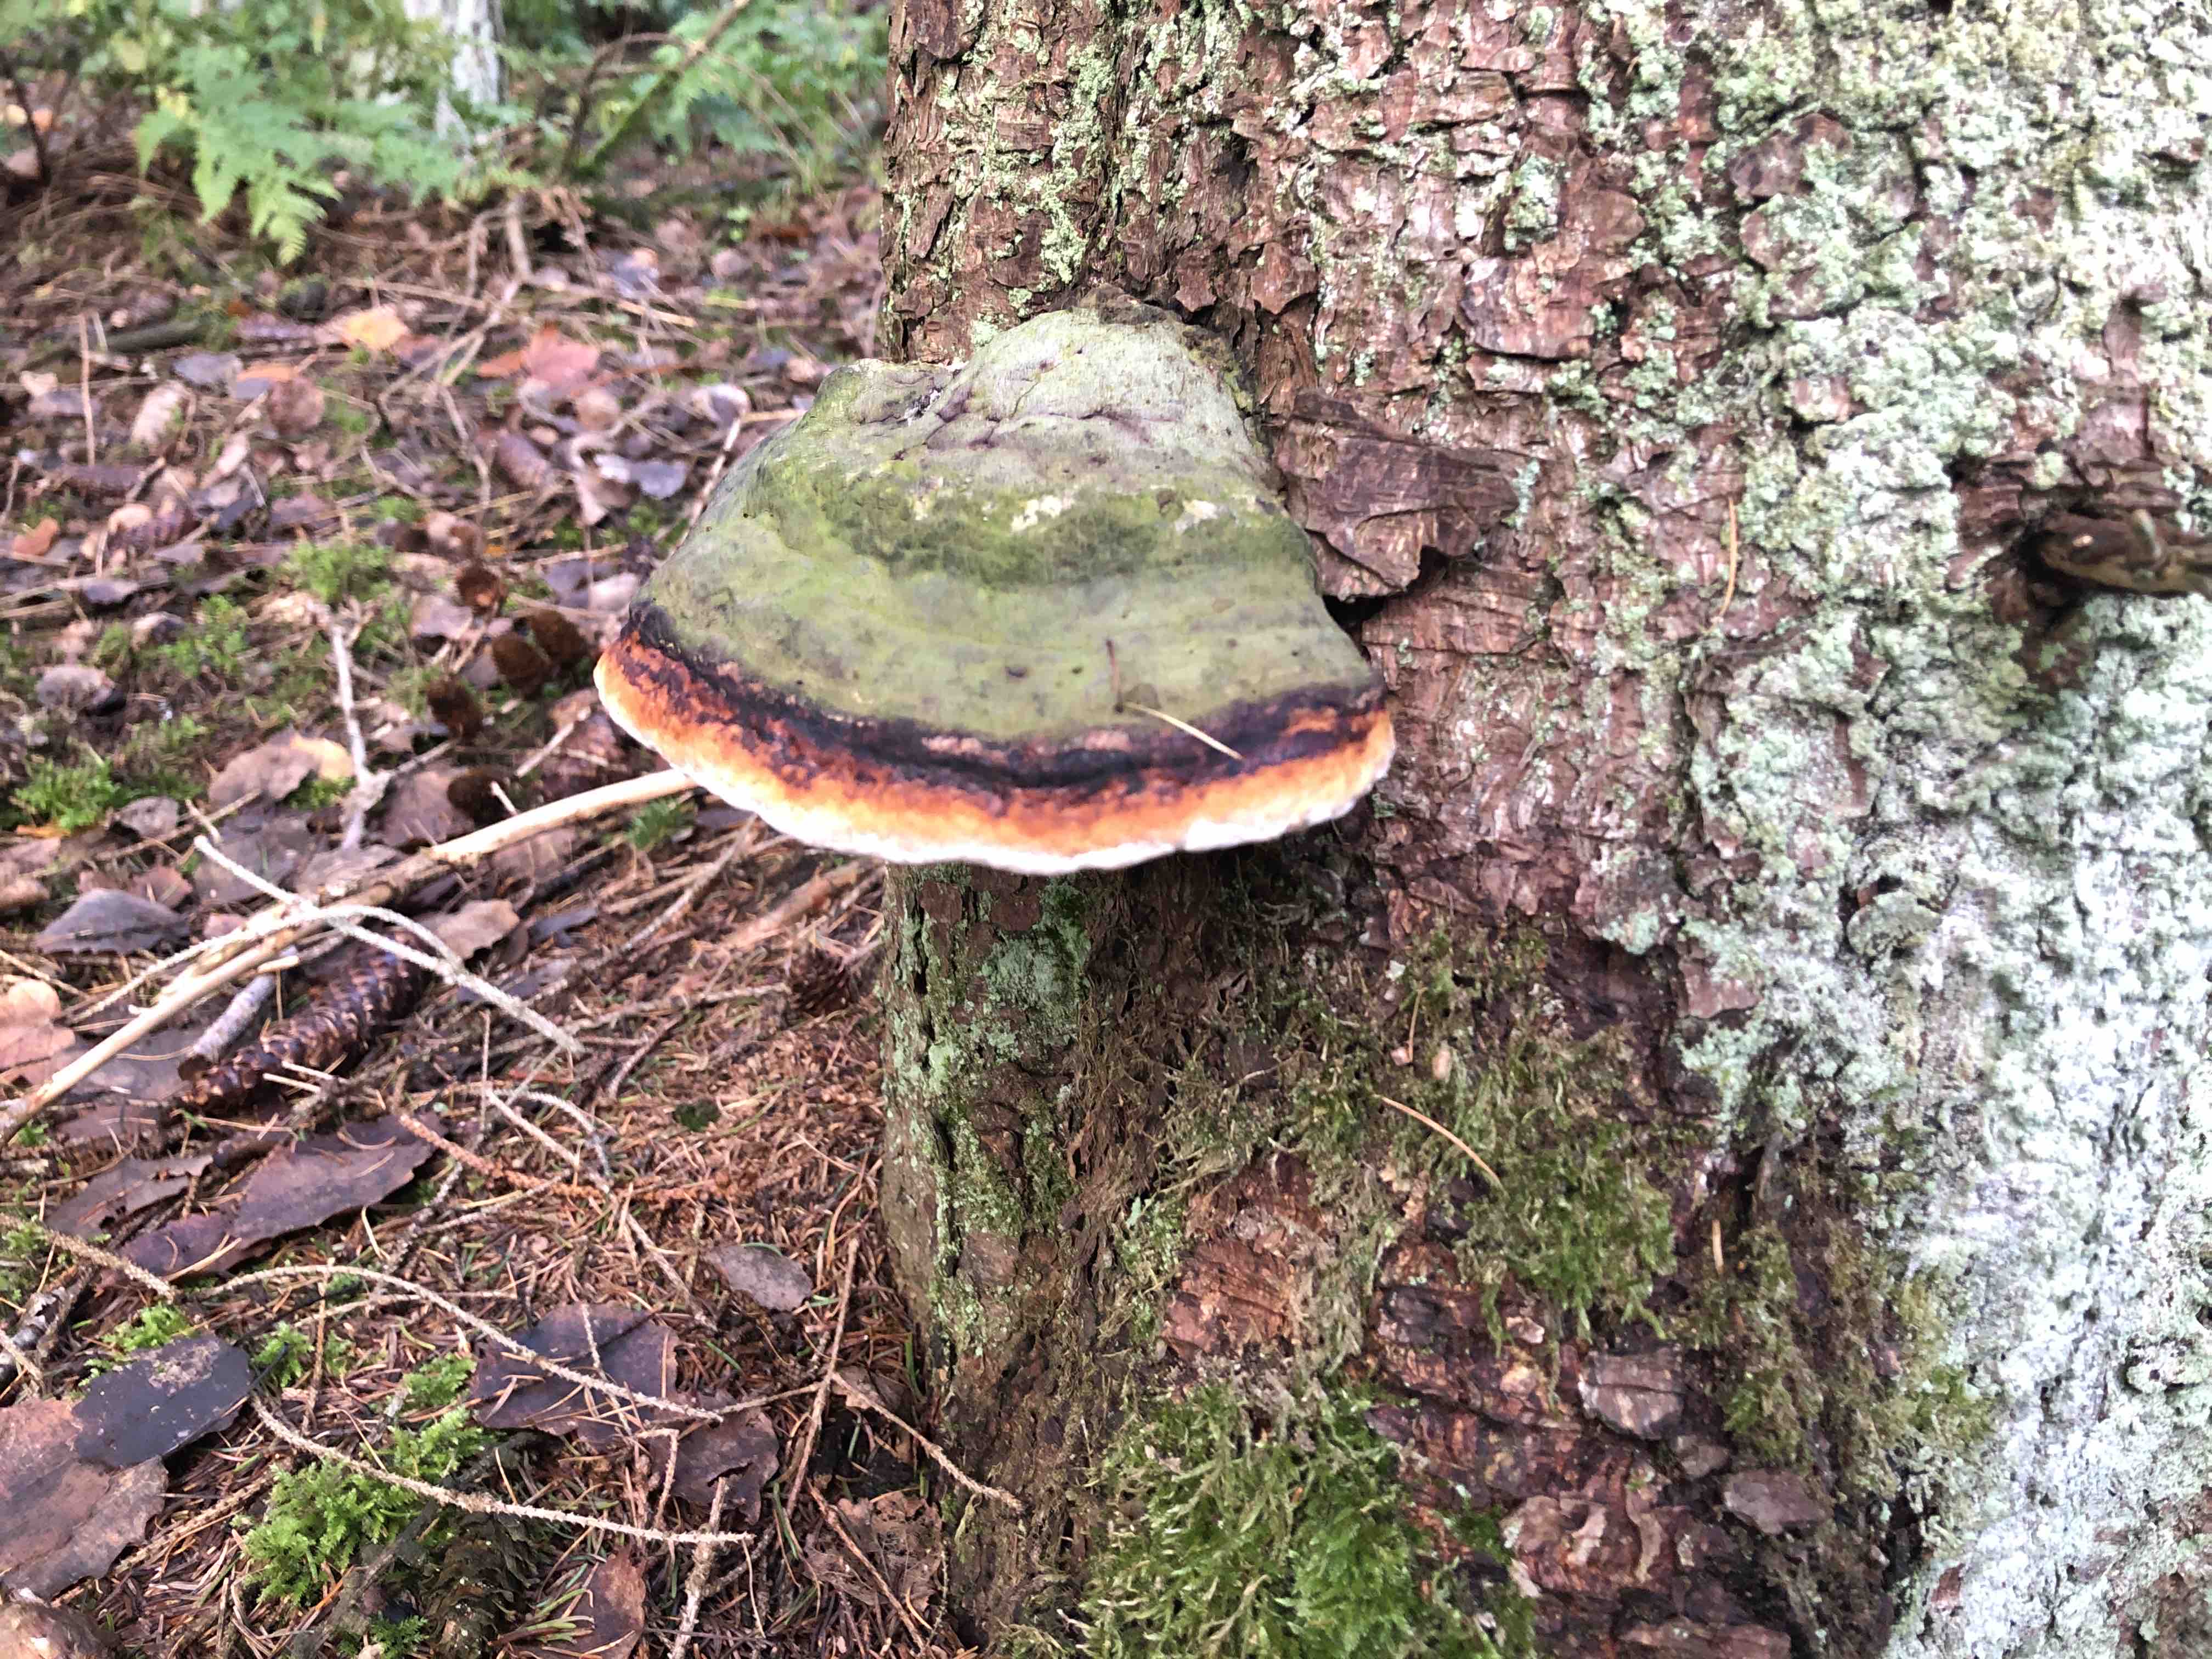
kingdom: Fungi
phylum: Basidiomycota
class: Agaricomycetes
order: Polyporales
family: Fomitopsidaceae
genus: Fomitopsis
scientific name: Fomitopsis pinicola
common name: randbæltet hovporesvamp
